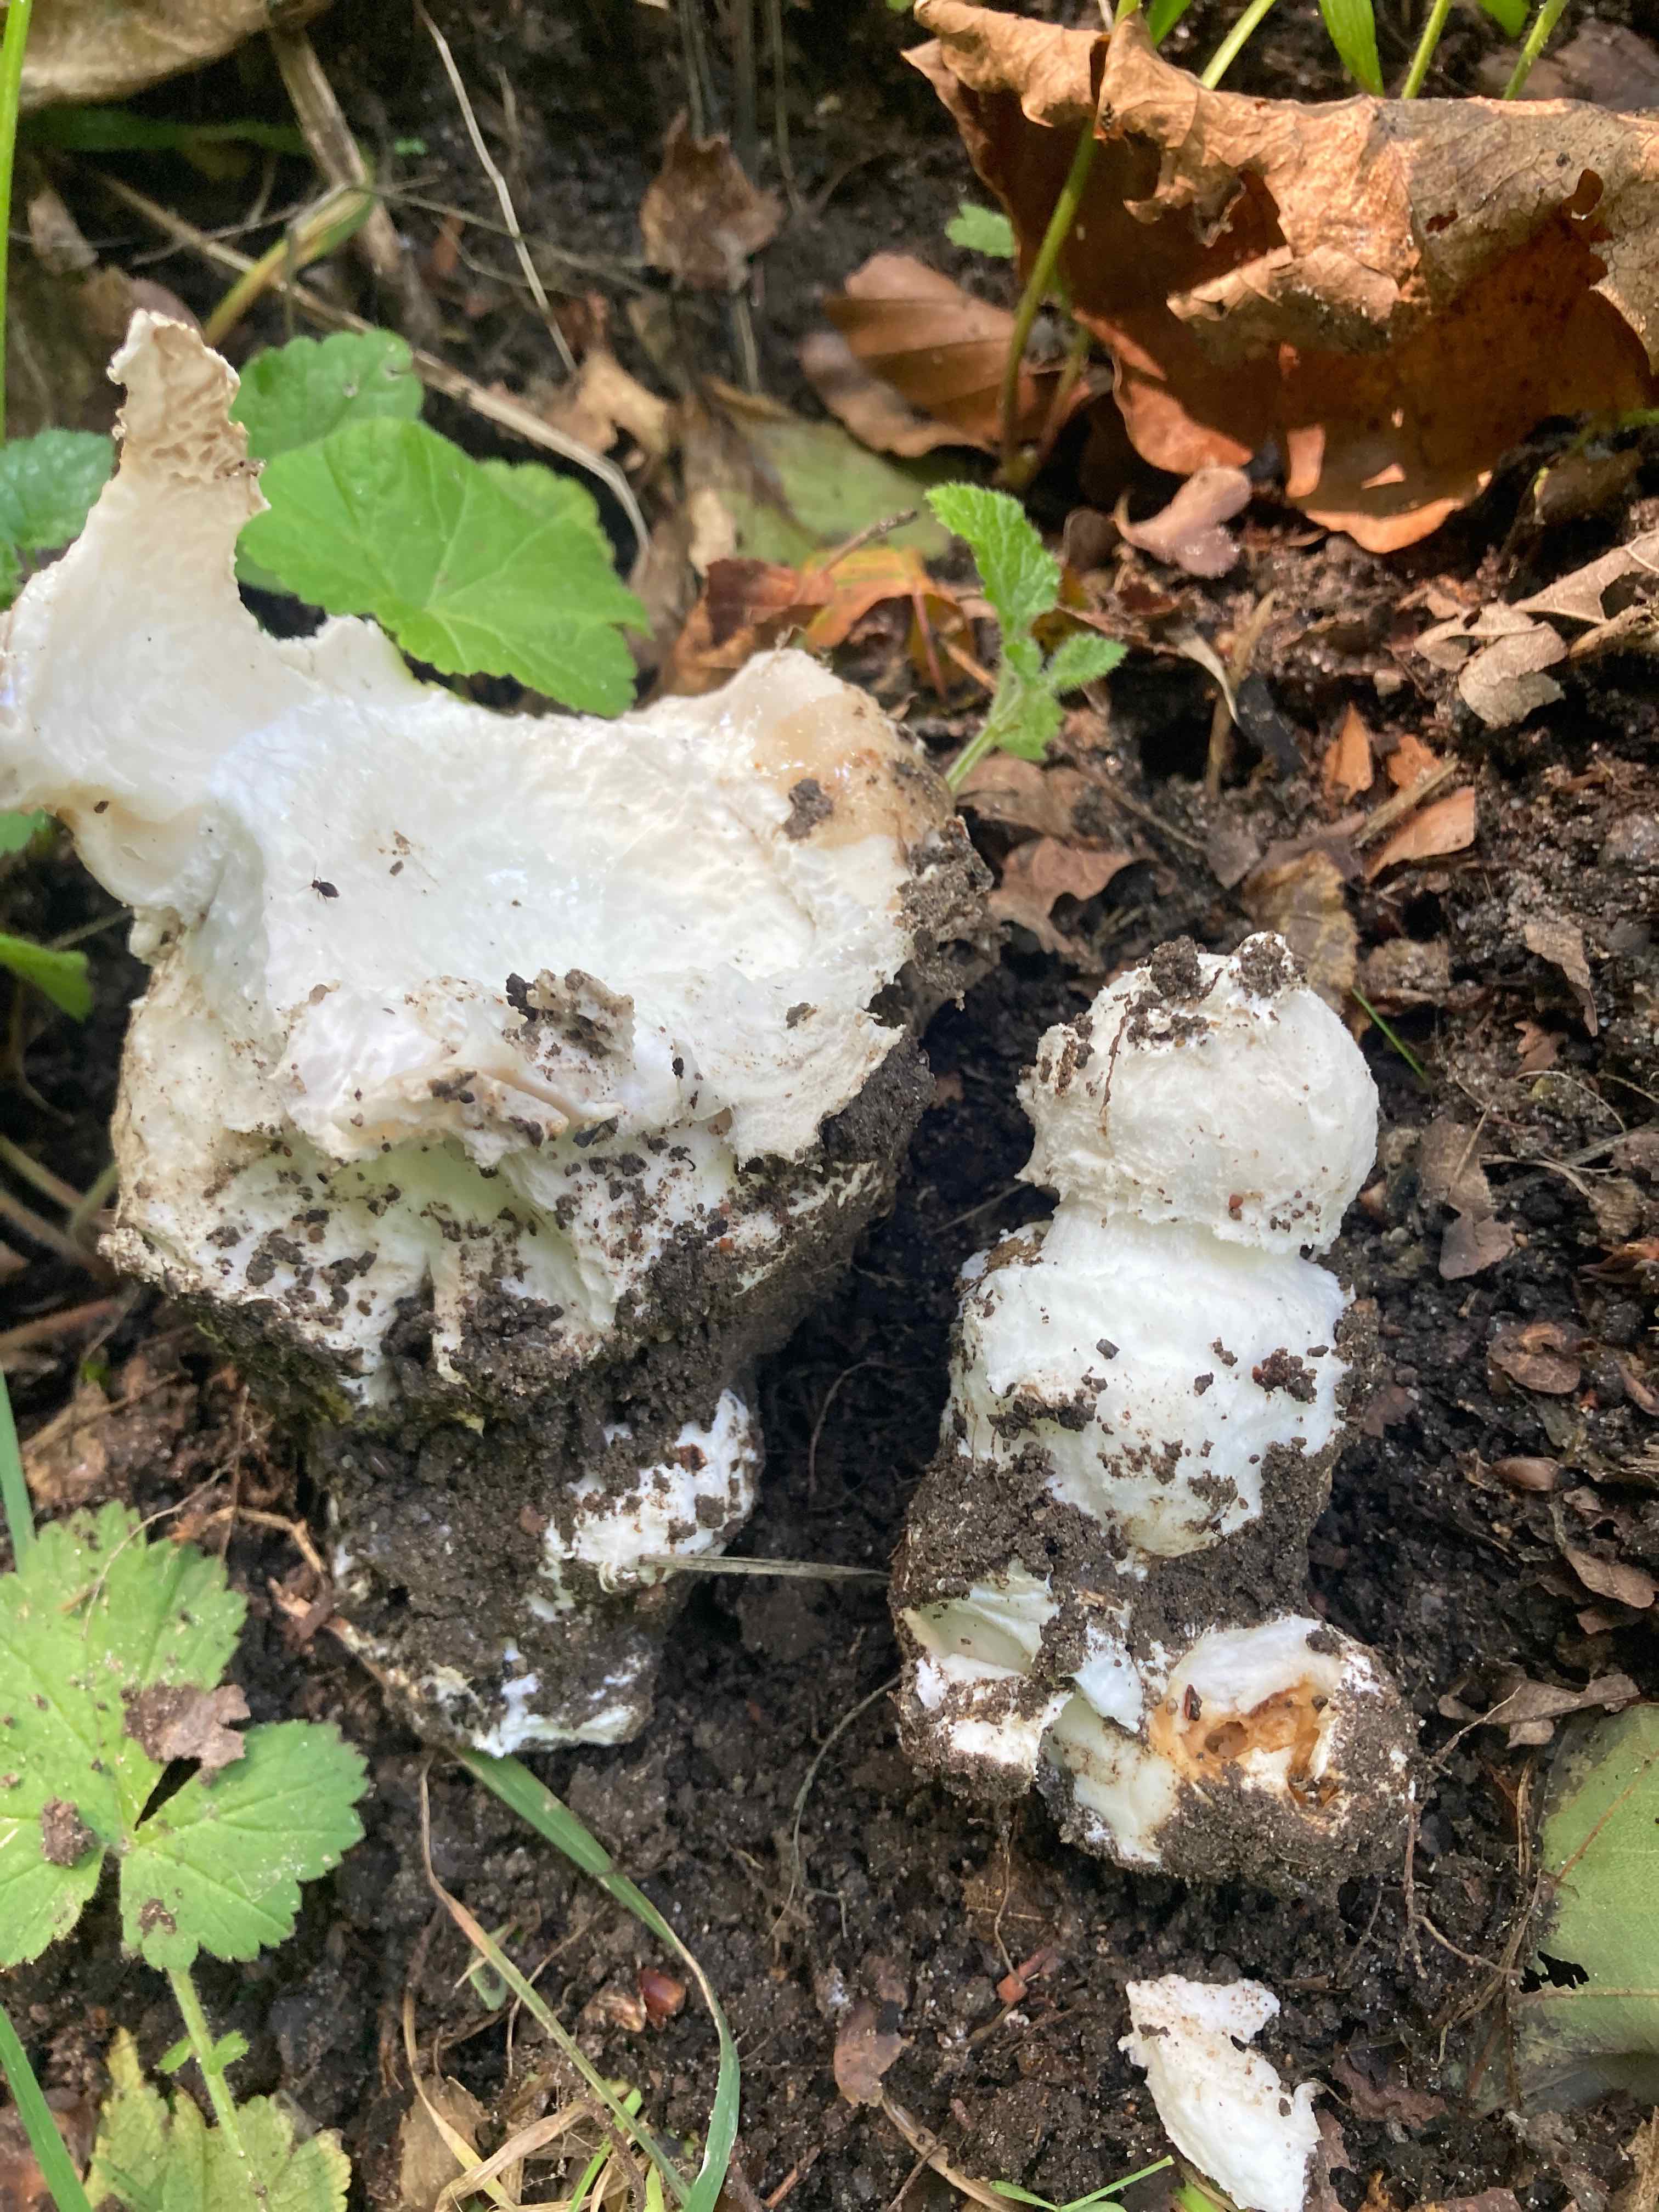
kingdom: Fungi
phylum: Basidiomycota
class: Agaricomycetes
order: Agaricales
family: Amanitaceae
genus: Amanita
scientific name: Amanita
